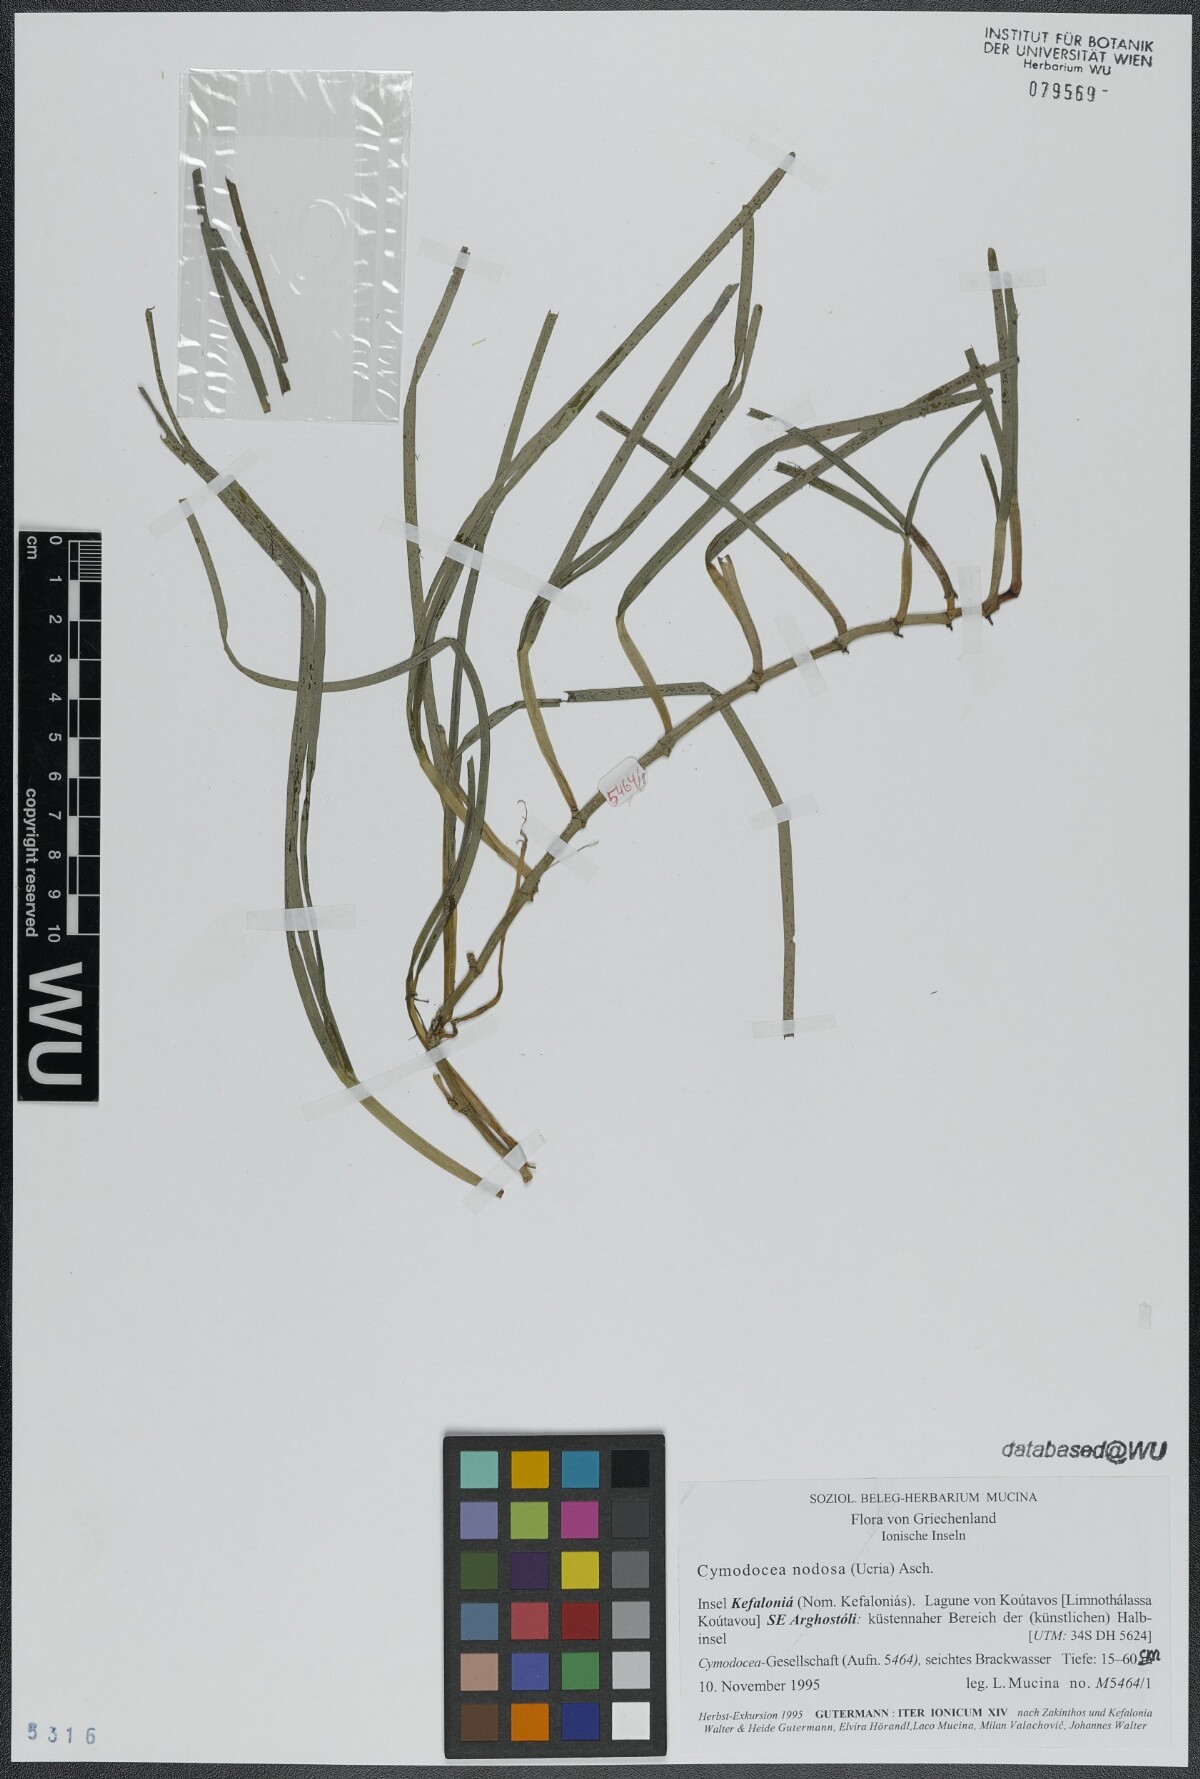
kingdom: Plantae
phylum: Tracheophyta
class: Liliopsida
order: Alismatales
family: Cymodoceaceae
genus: Cymodocea
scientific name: Cymodocea nodosa
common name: Slender seagrass
